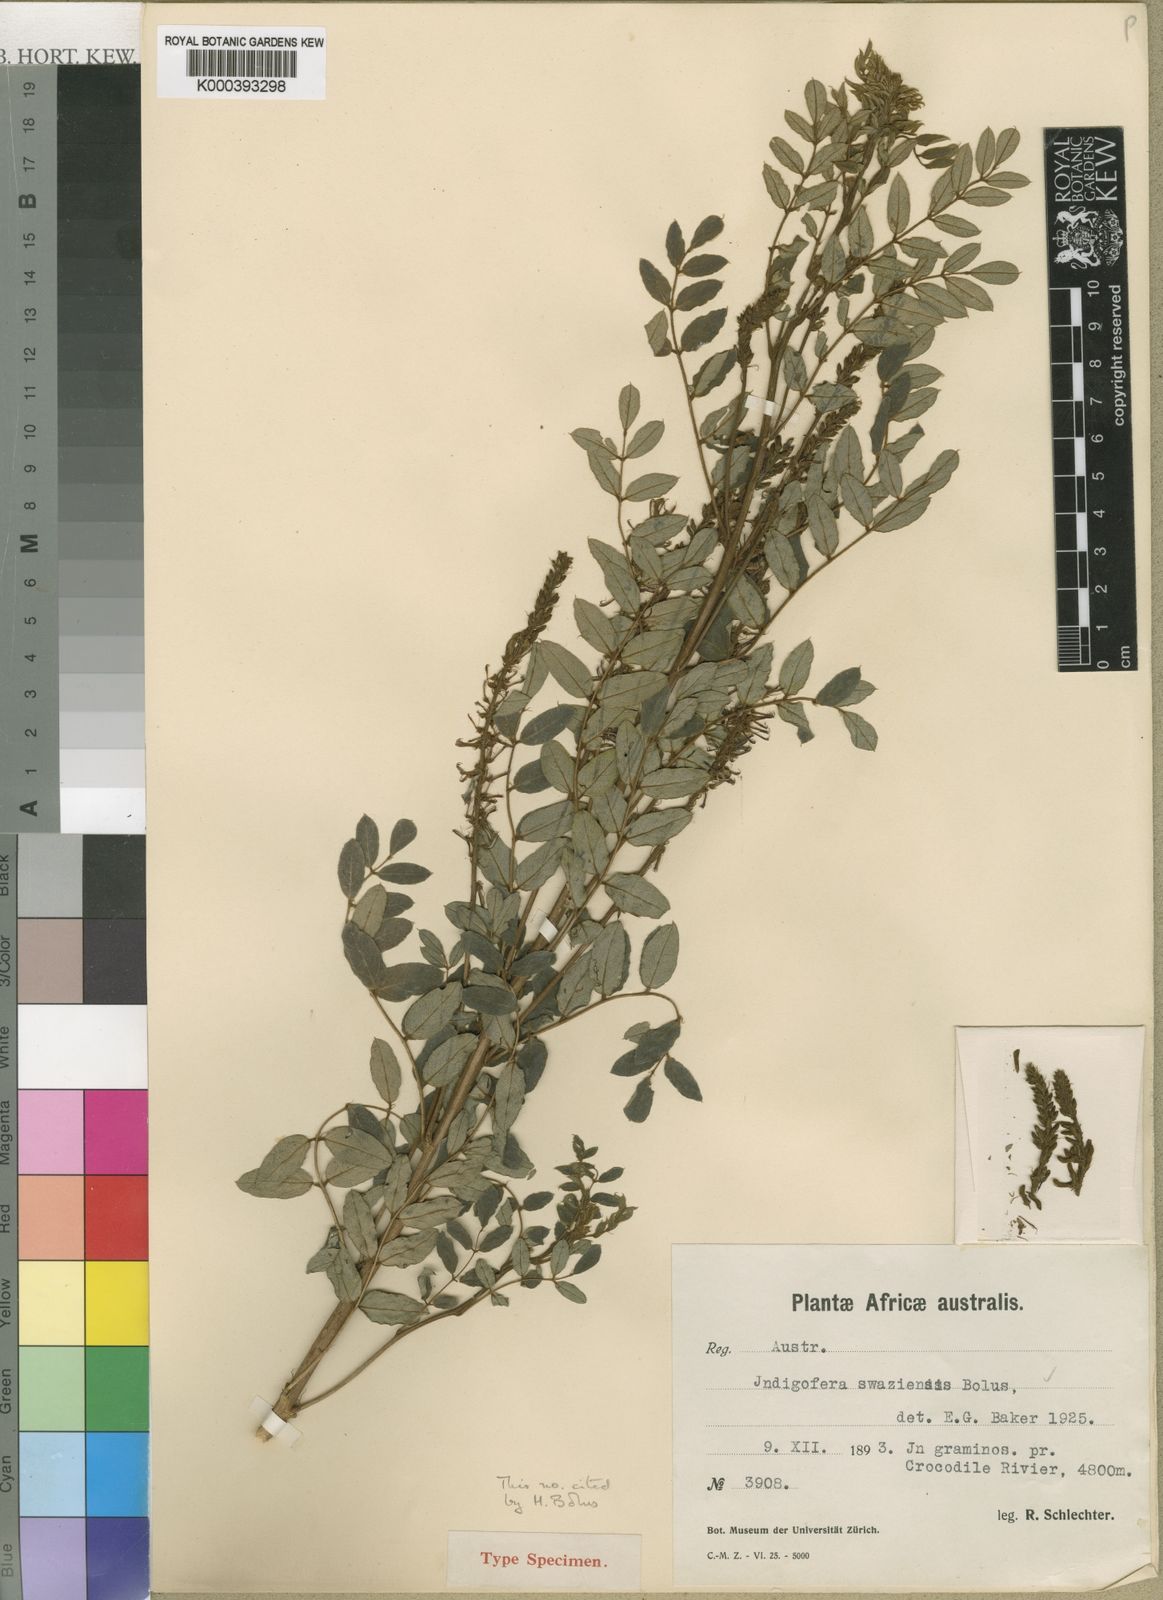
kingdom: Plantae
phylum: Tracheophyta
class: Magnoliopsida
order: Fabales
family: Fabaceae
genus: Indigofera
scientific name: Indigofera swaziensis
